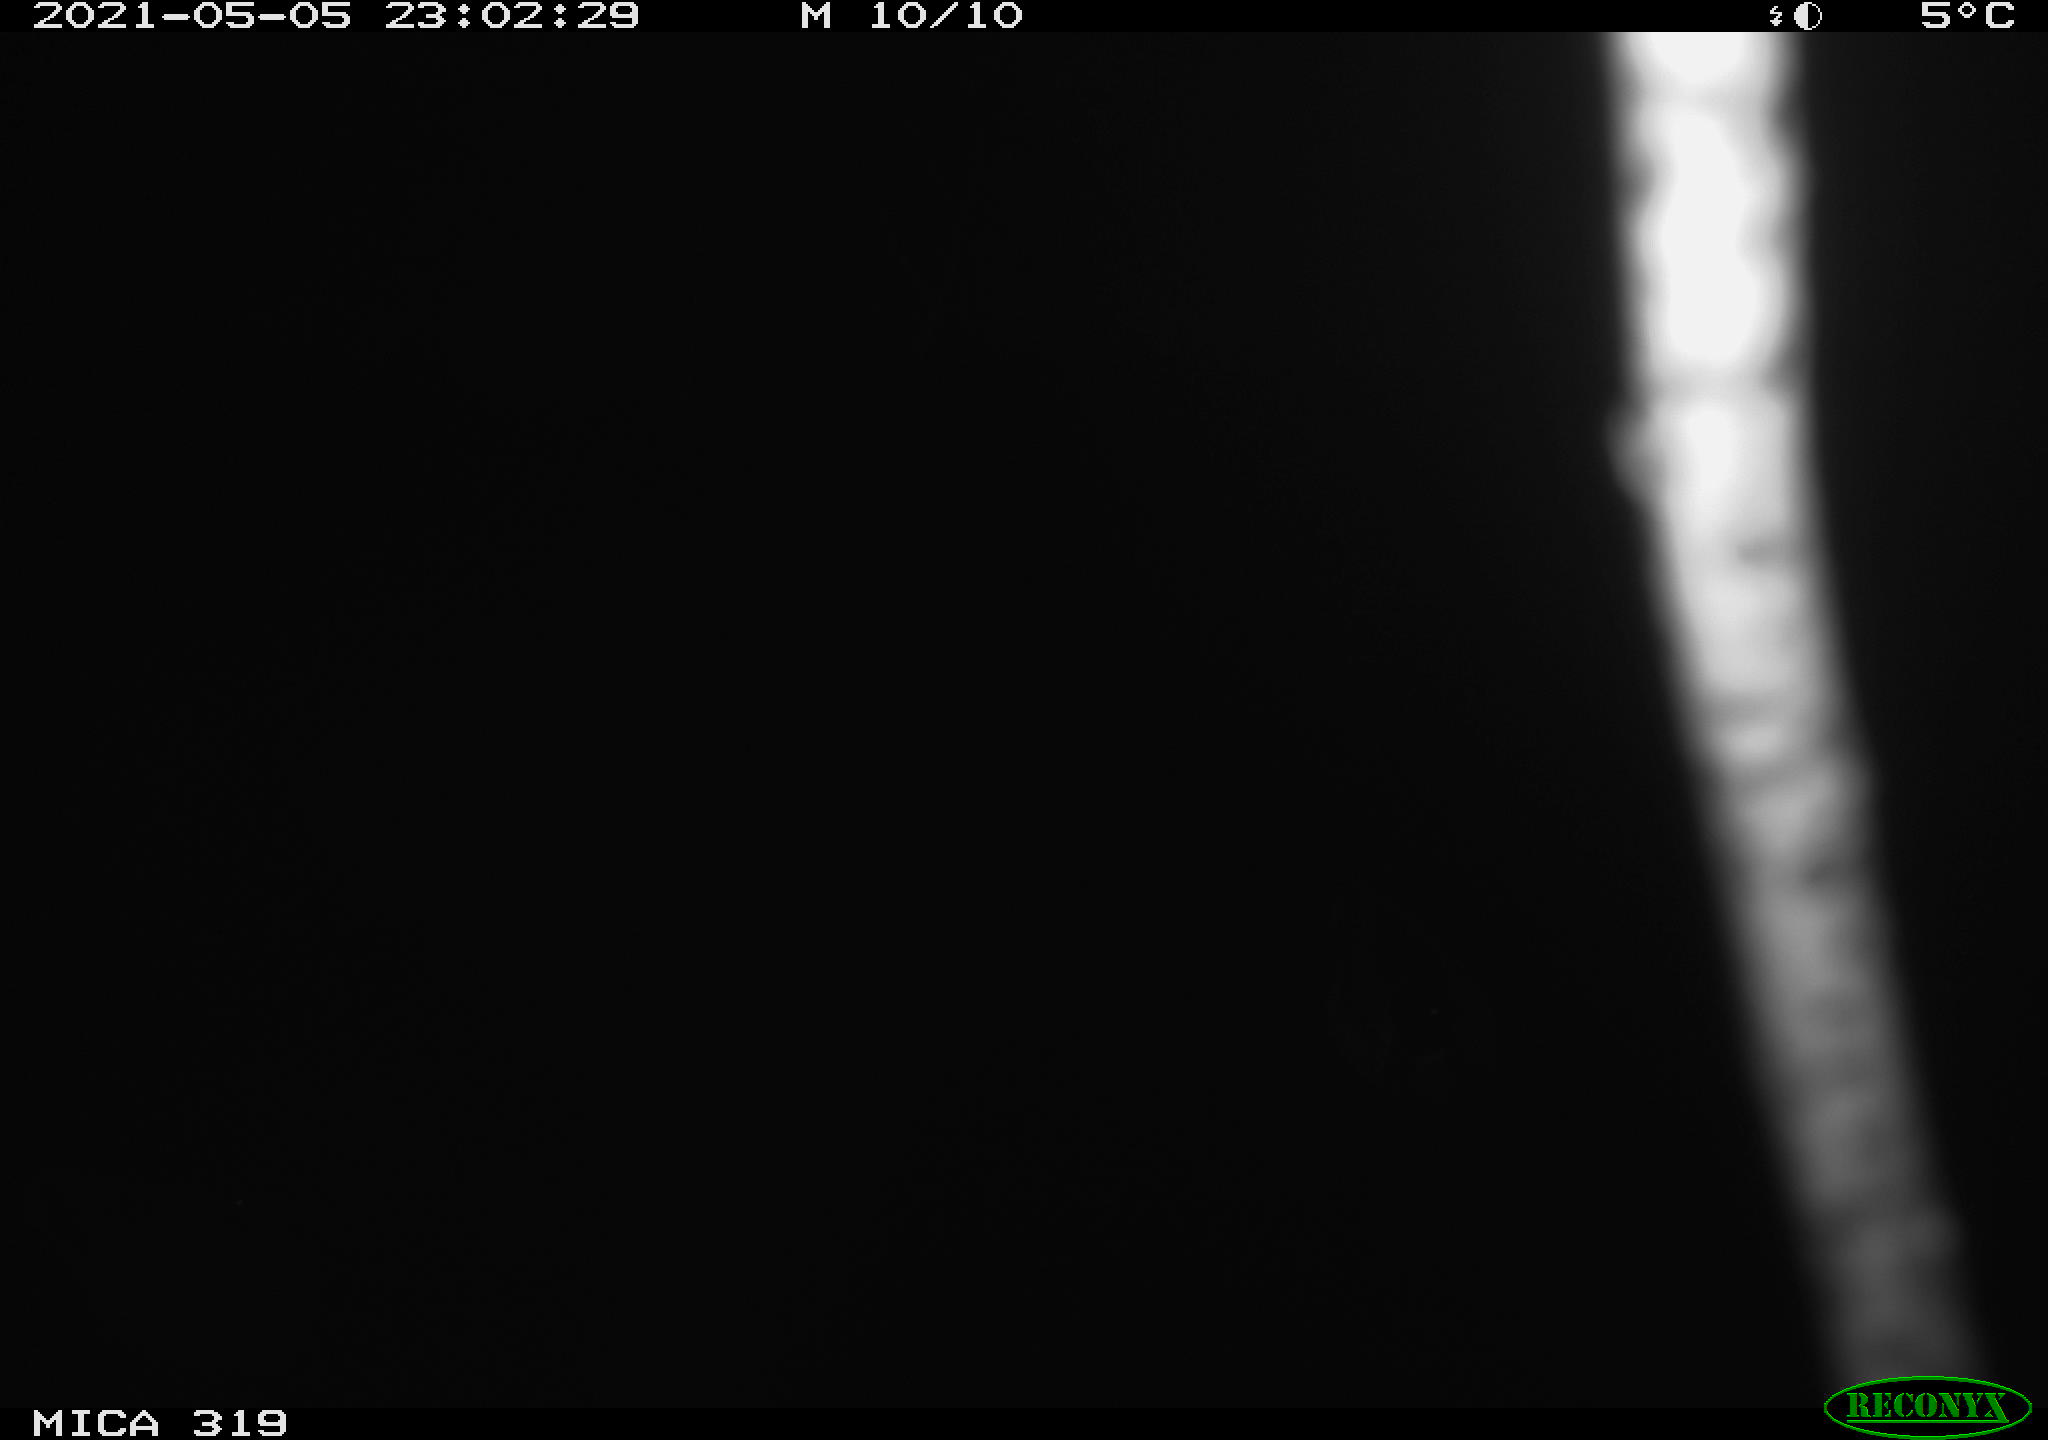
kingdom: Animalia
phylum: Chordata
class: Aves
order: Anseriformes
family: Anatidae
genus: Anas
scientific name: Anas platyrhynchos
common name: Mallard
